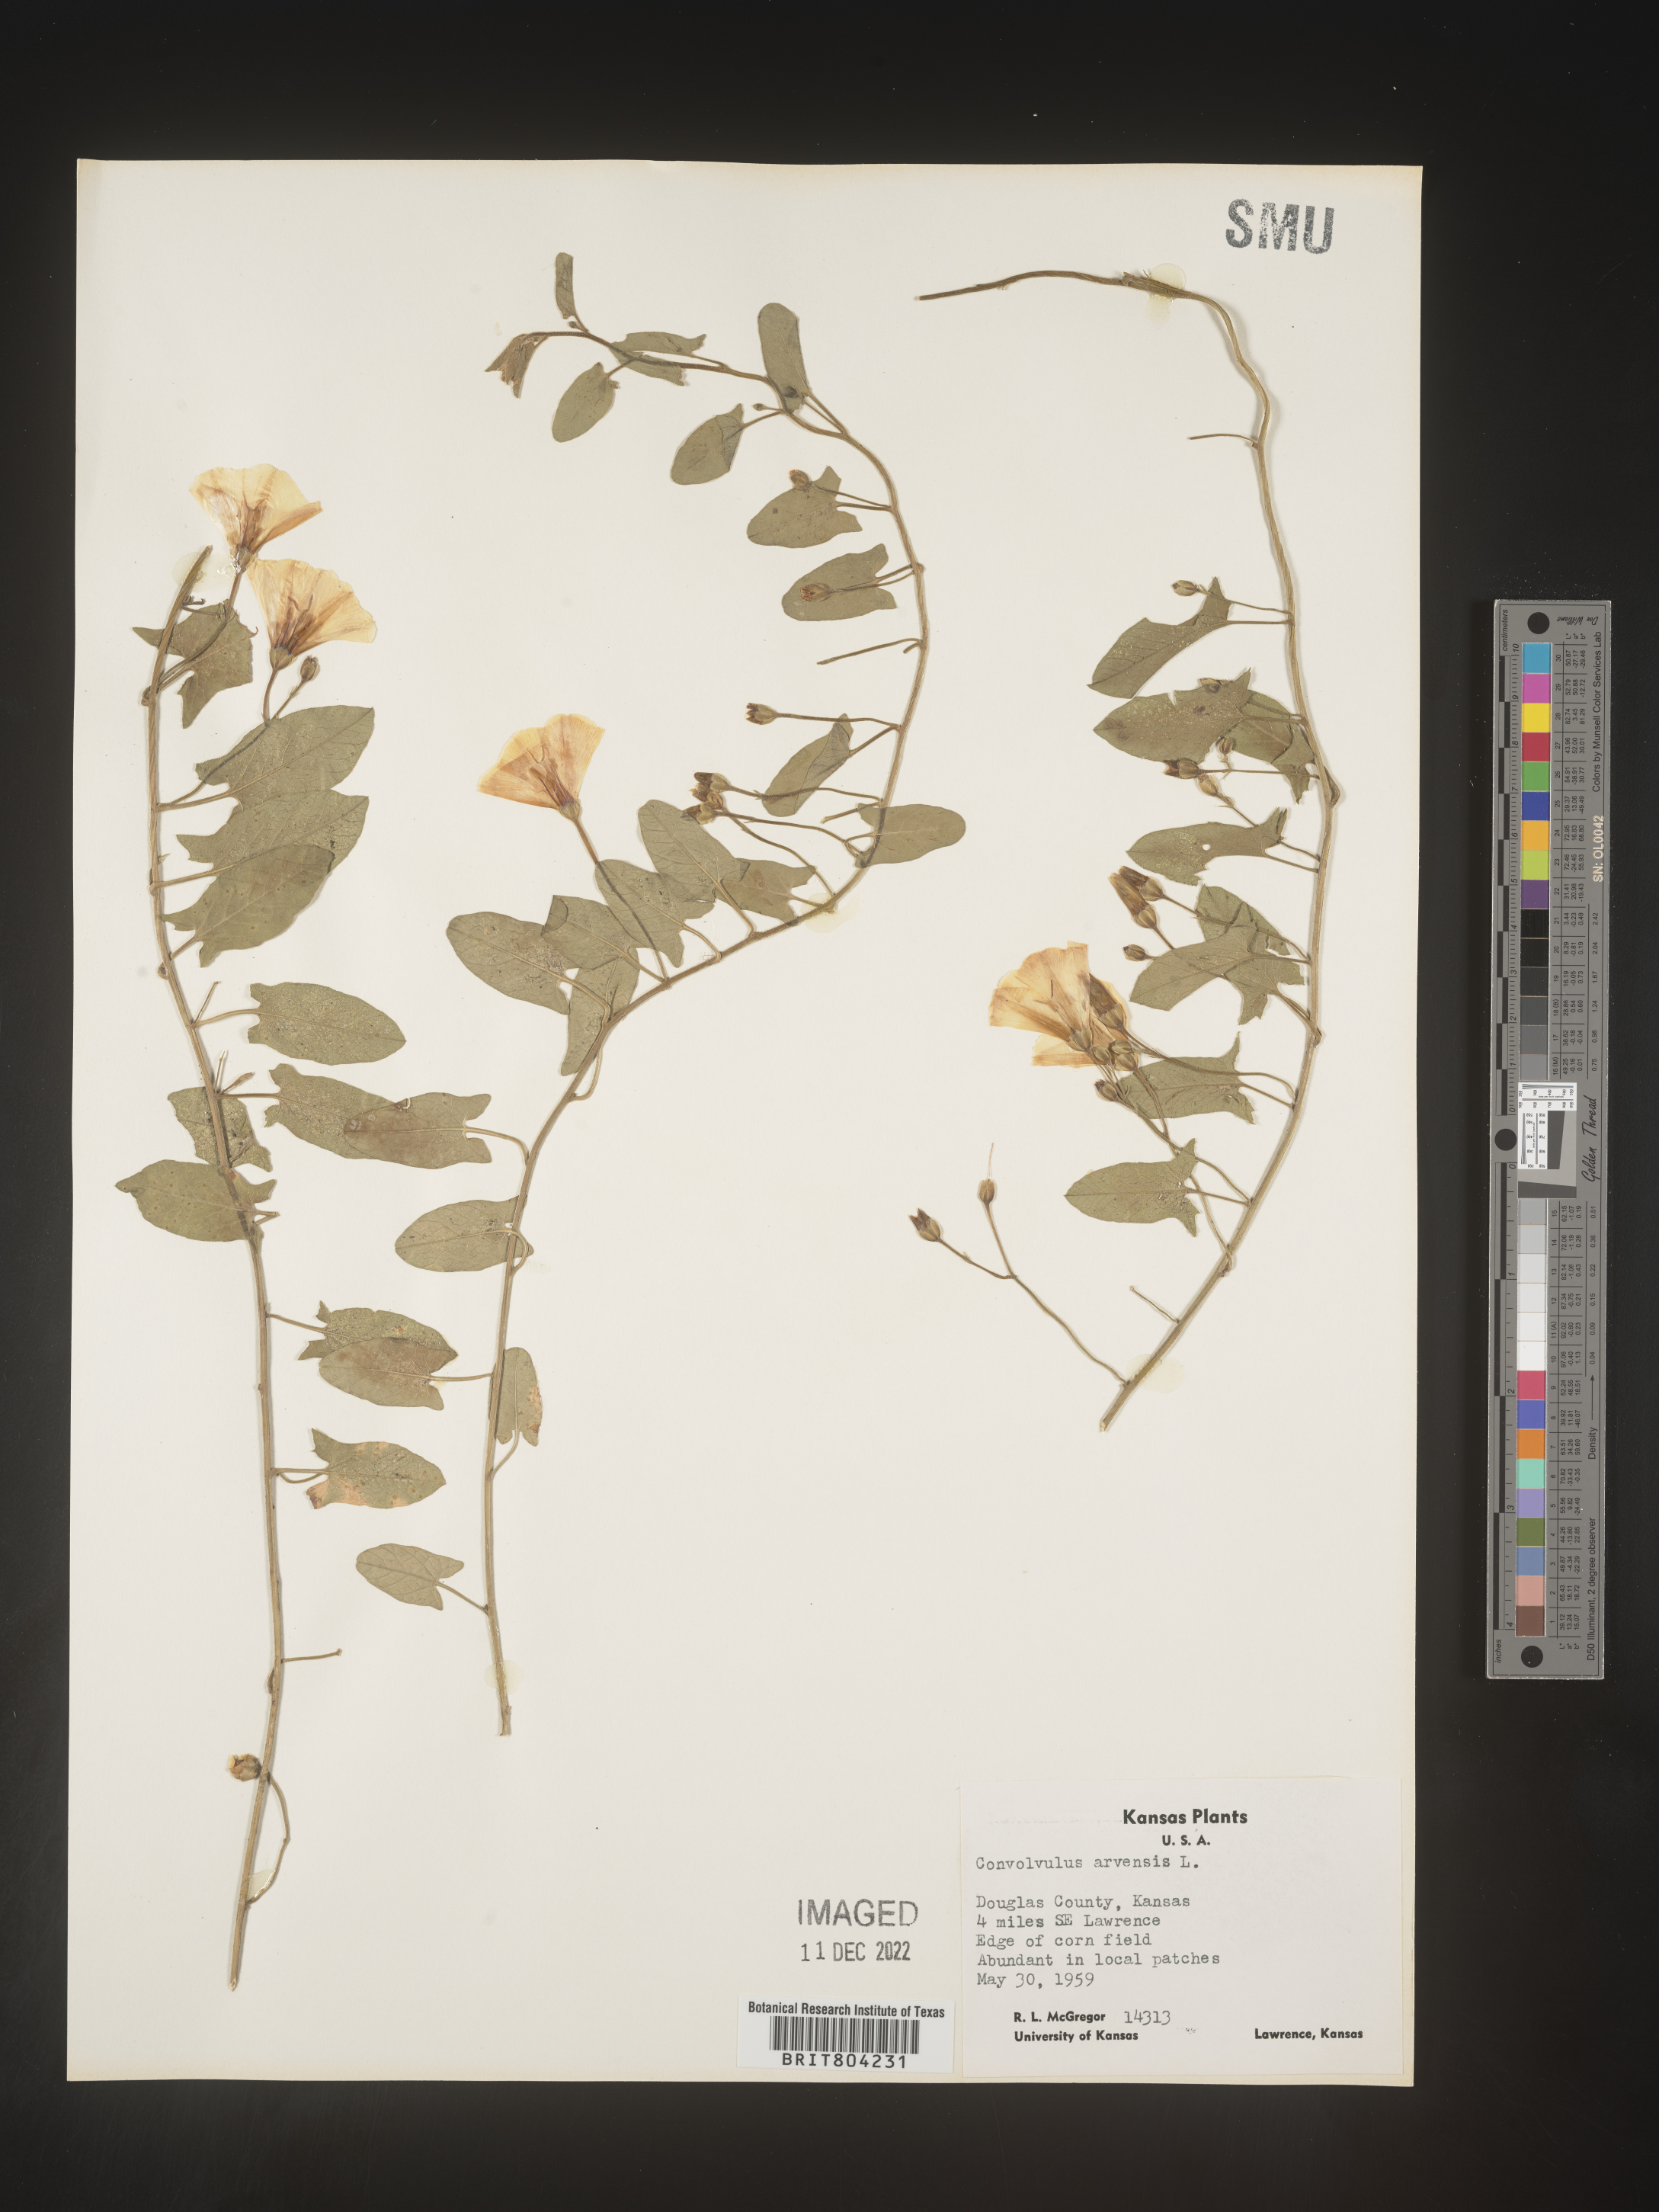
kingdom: Plantae
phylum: Tracheophyta
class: Magnoliopsida
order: Solanales
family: Convolvulaceae
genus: Convolvulus
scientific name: Convolvulus arvensis
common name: Field bindweed
